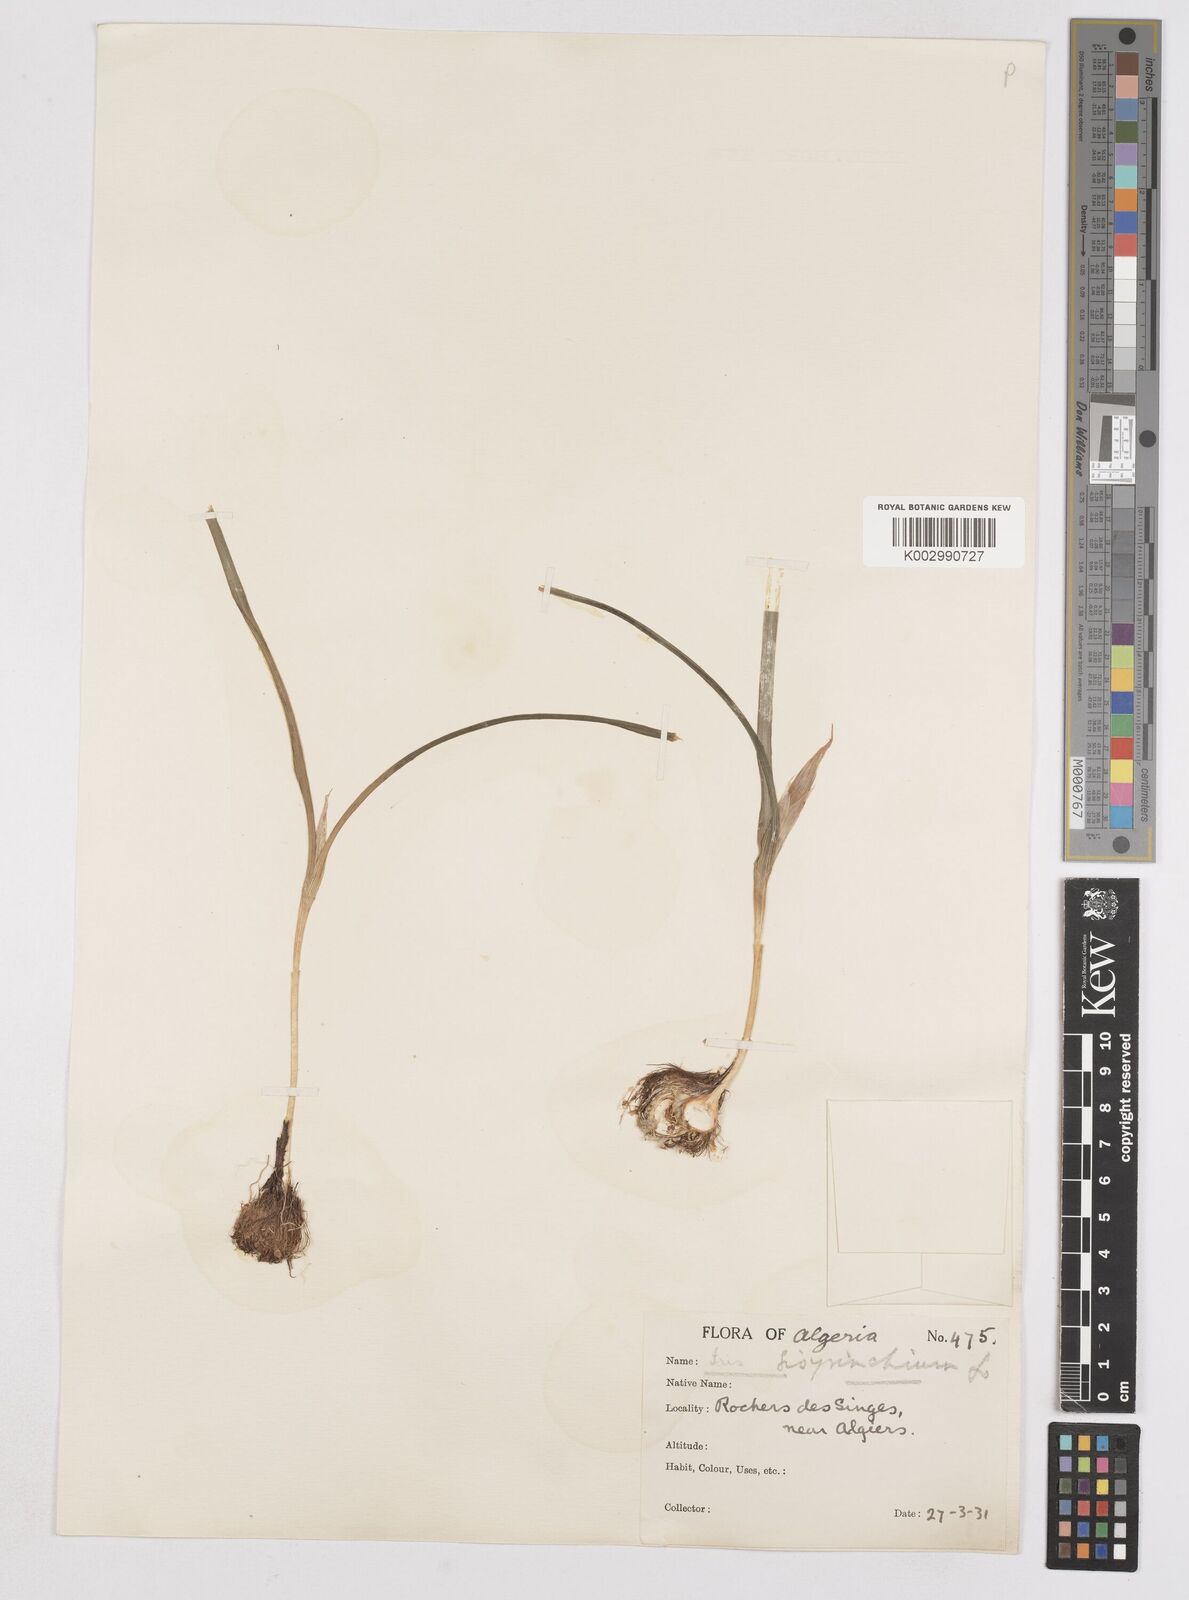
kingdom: Plantae
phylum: Tracheophyta
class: Liliopsida
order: Asparagales
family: Iridaceae
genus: Moraea
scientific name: Moraea sisyrinchium
